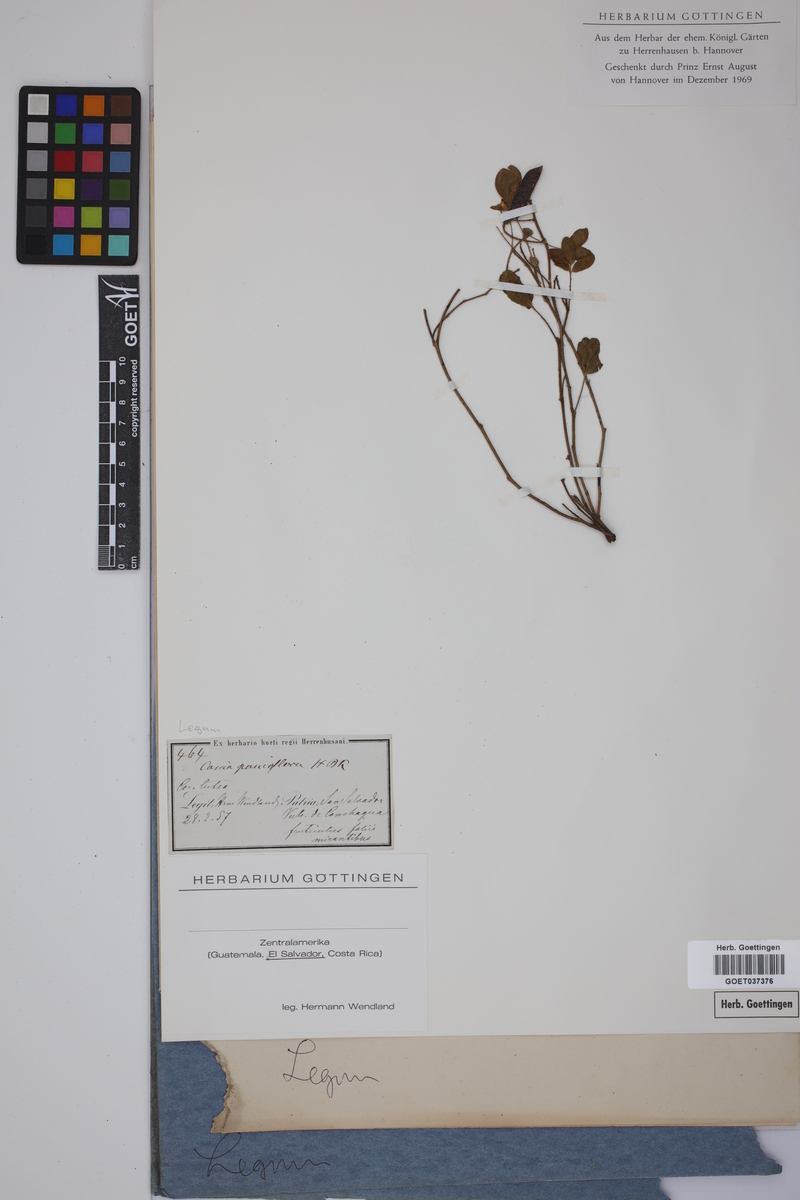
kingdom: Plantae
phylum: Tracheophyta
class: Magnoliopsida
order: Fabales
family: Fabaceae
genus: Chamaecrista
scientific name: Chamaecrista desvauxii
